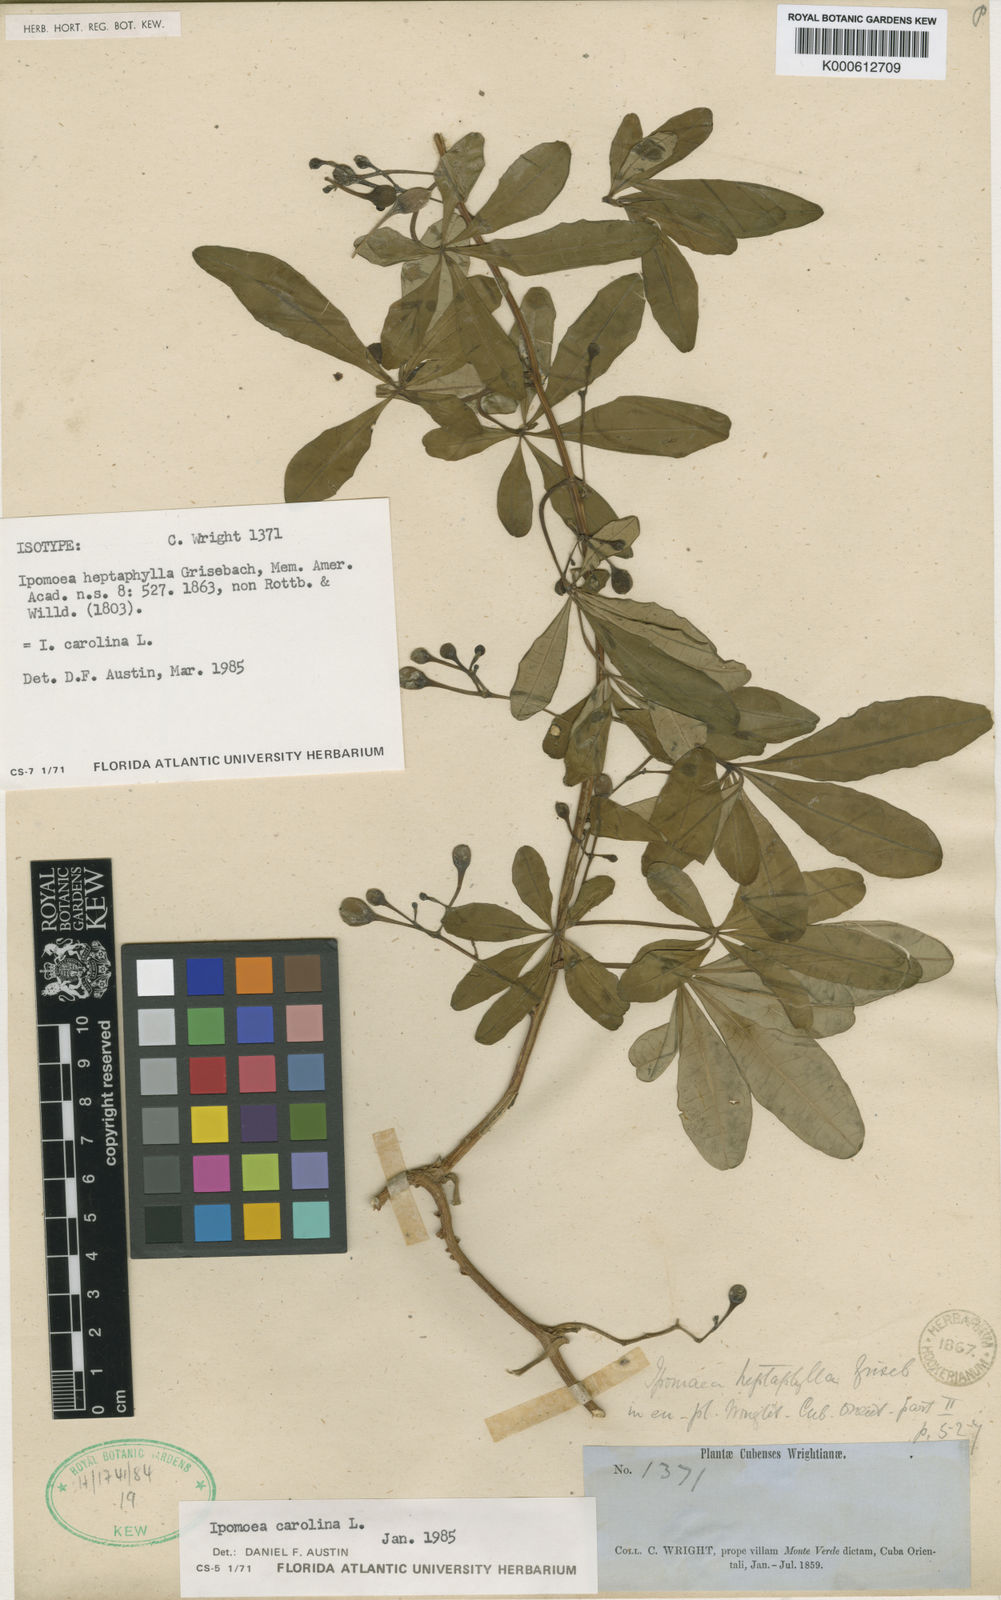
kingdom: Plantae
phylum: Tracheophyta
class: Magnoliopsida
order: Solanales
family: Convolvulaceae
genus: Ipomoea
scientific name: Ipomoea carolina
